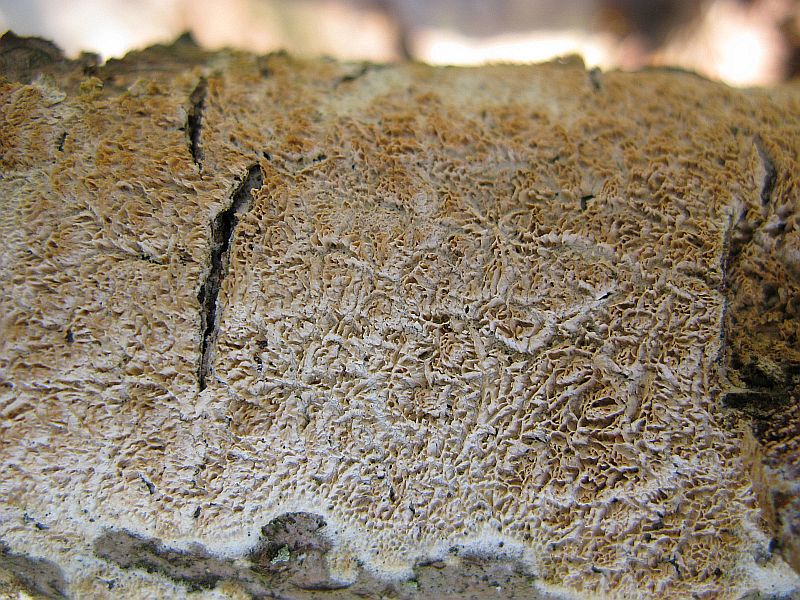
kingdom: Fungi
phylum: Basidiomycota
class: Agaricomycetes
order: Hymenochaetales
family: Schizoporaceae
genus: Schizopora
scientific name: Schizopora paradoxa
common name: hvid tandsvamp
